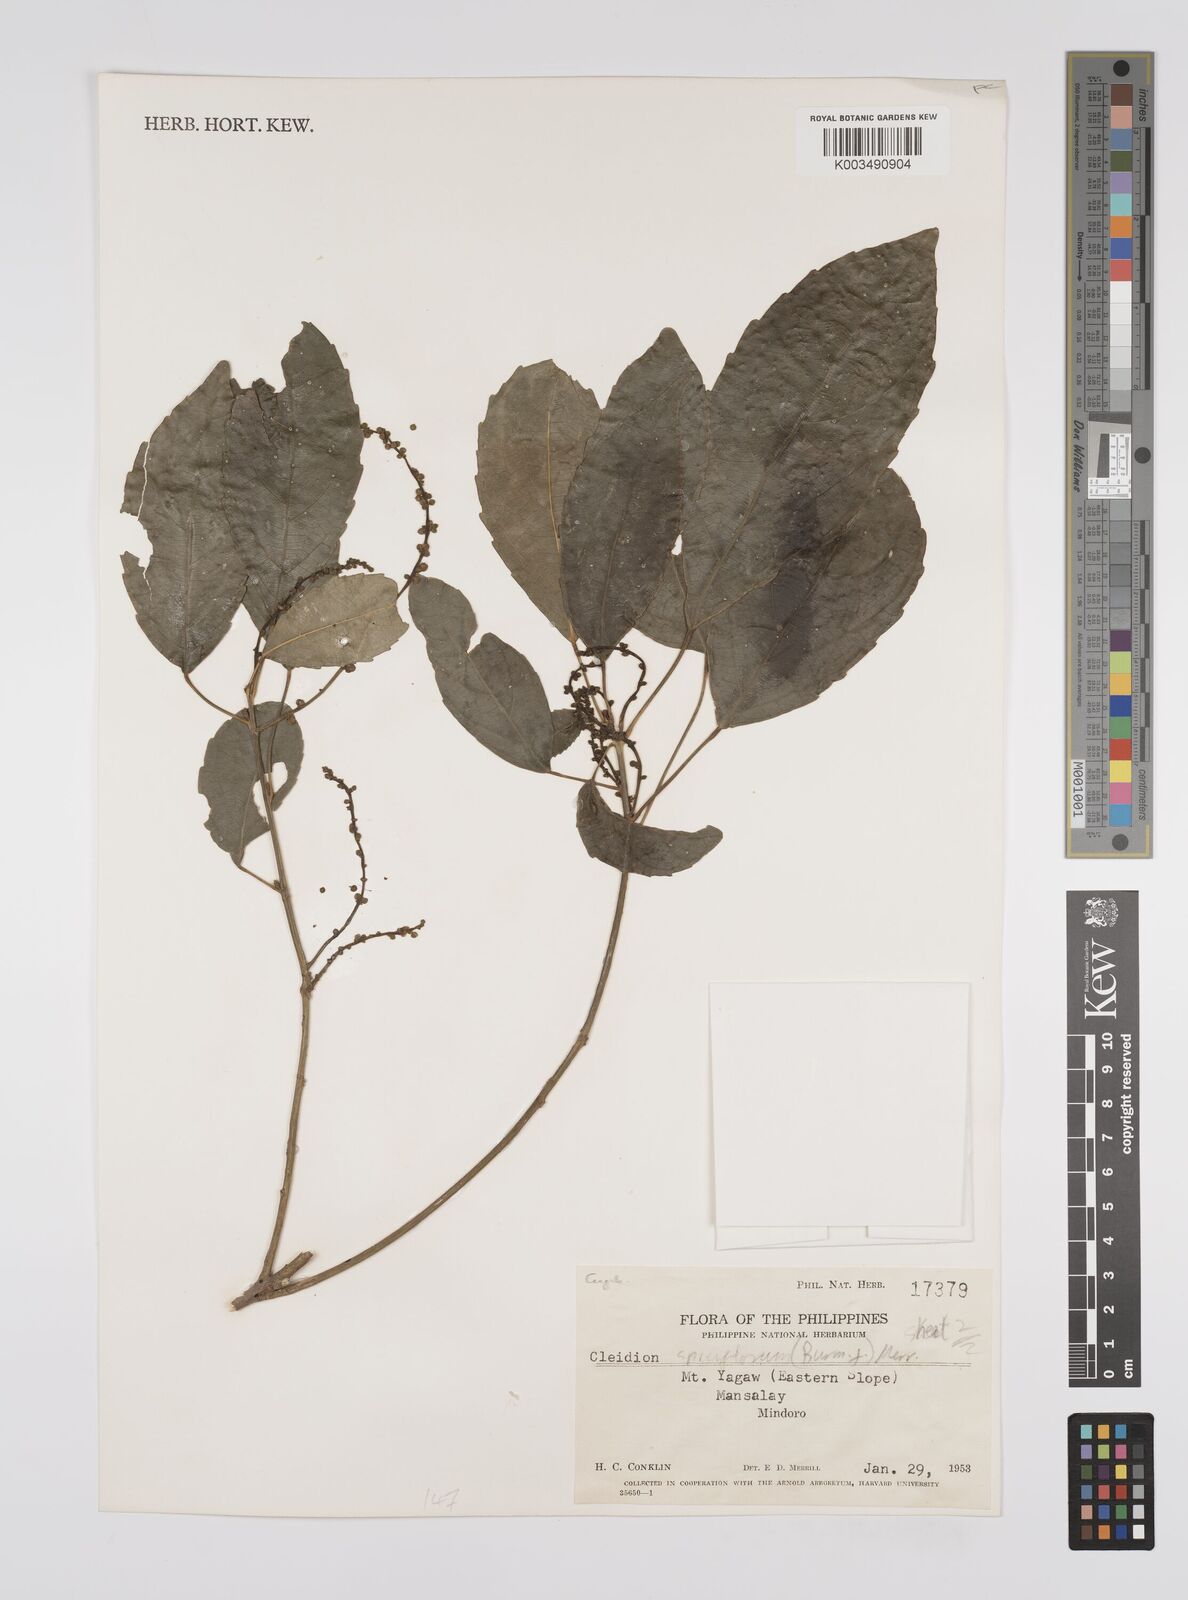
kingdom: Plantae
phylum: Tracheophyta
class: Magnoliopsida
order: Malpighiales
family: Euphorbiaceae
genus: Cleidion
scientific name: Cleidion javanicum
